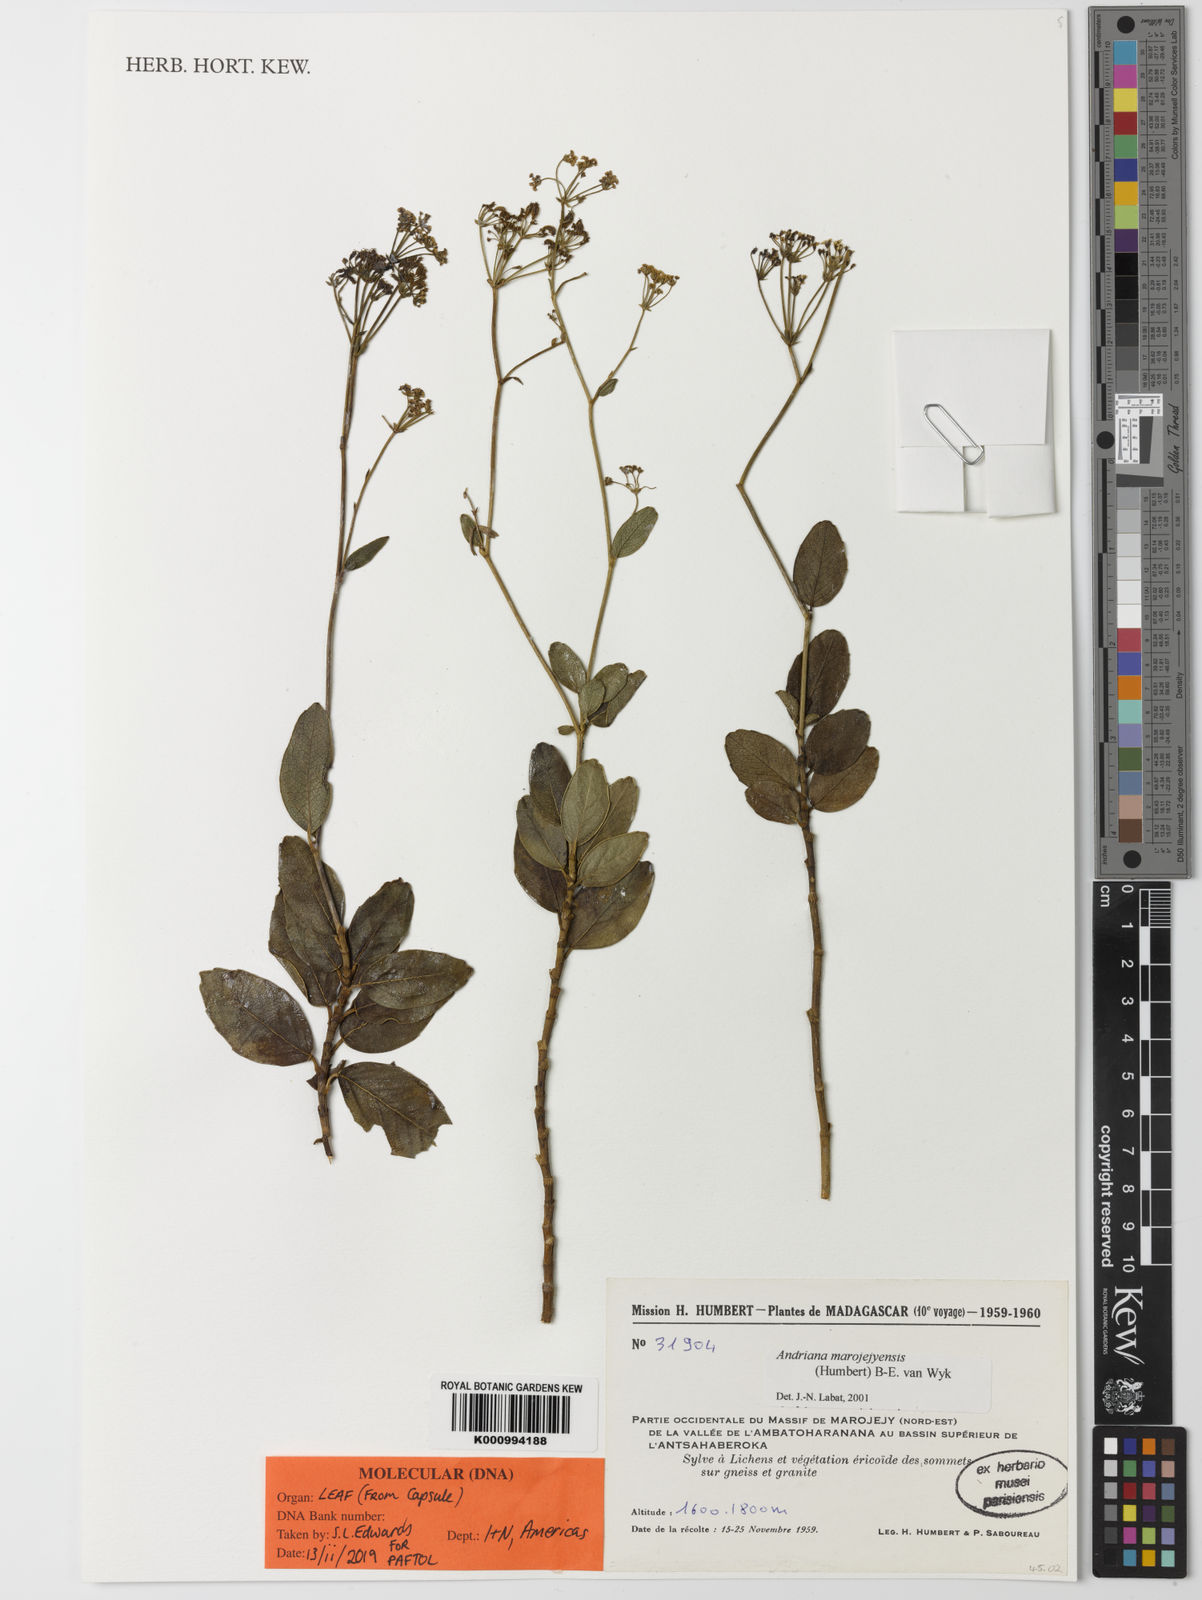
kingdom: Plantae
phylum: Tracheophyta
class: Magnoliopsida
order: Apiales
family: Apiaceae
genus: Andriana
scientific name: Andriana marojejyensis
